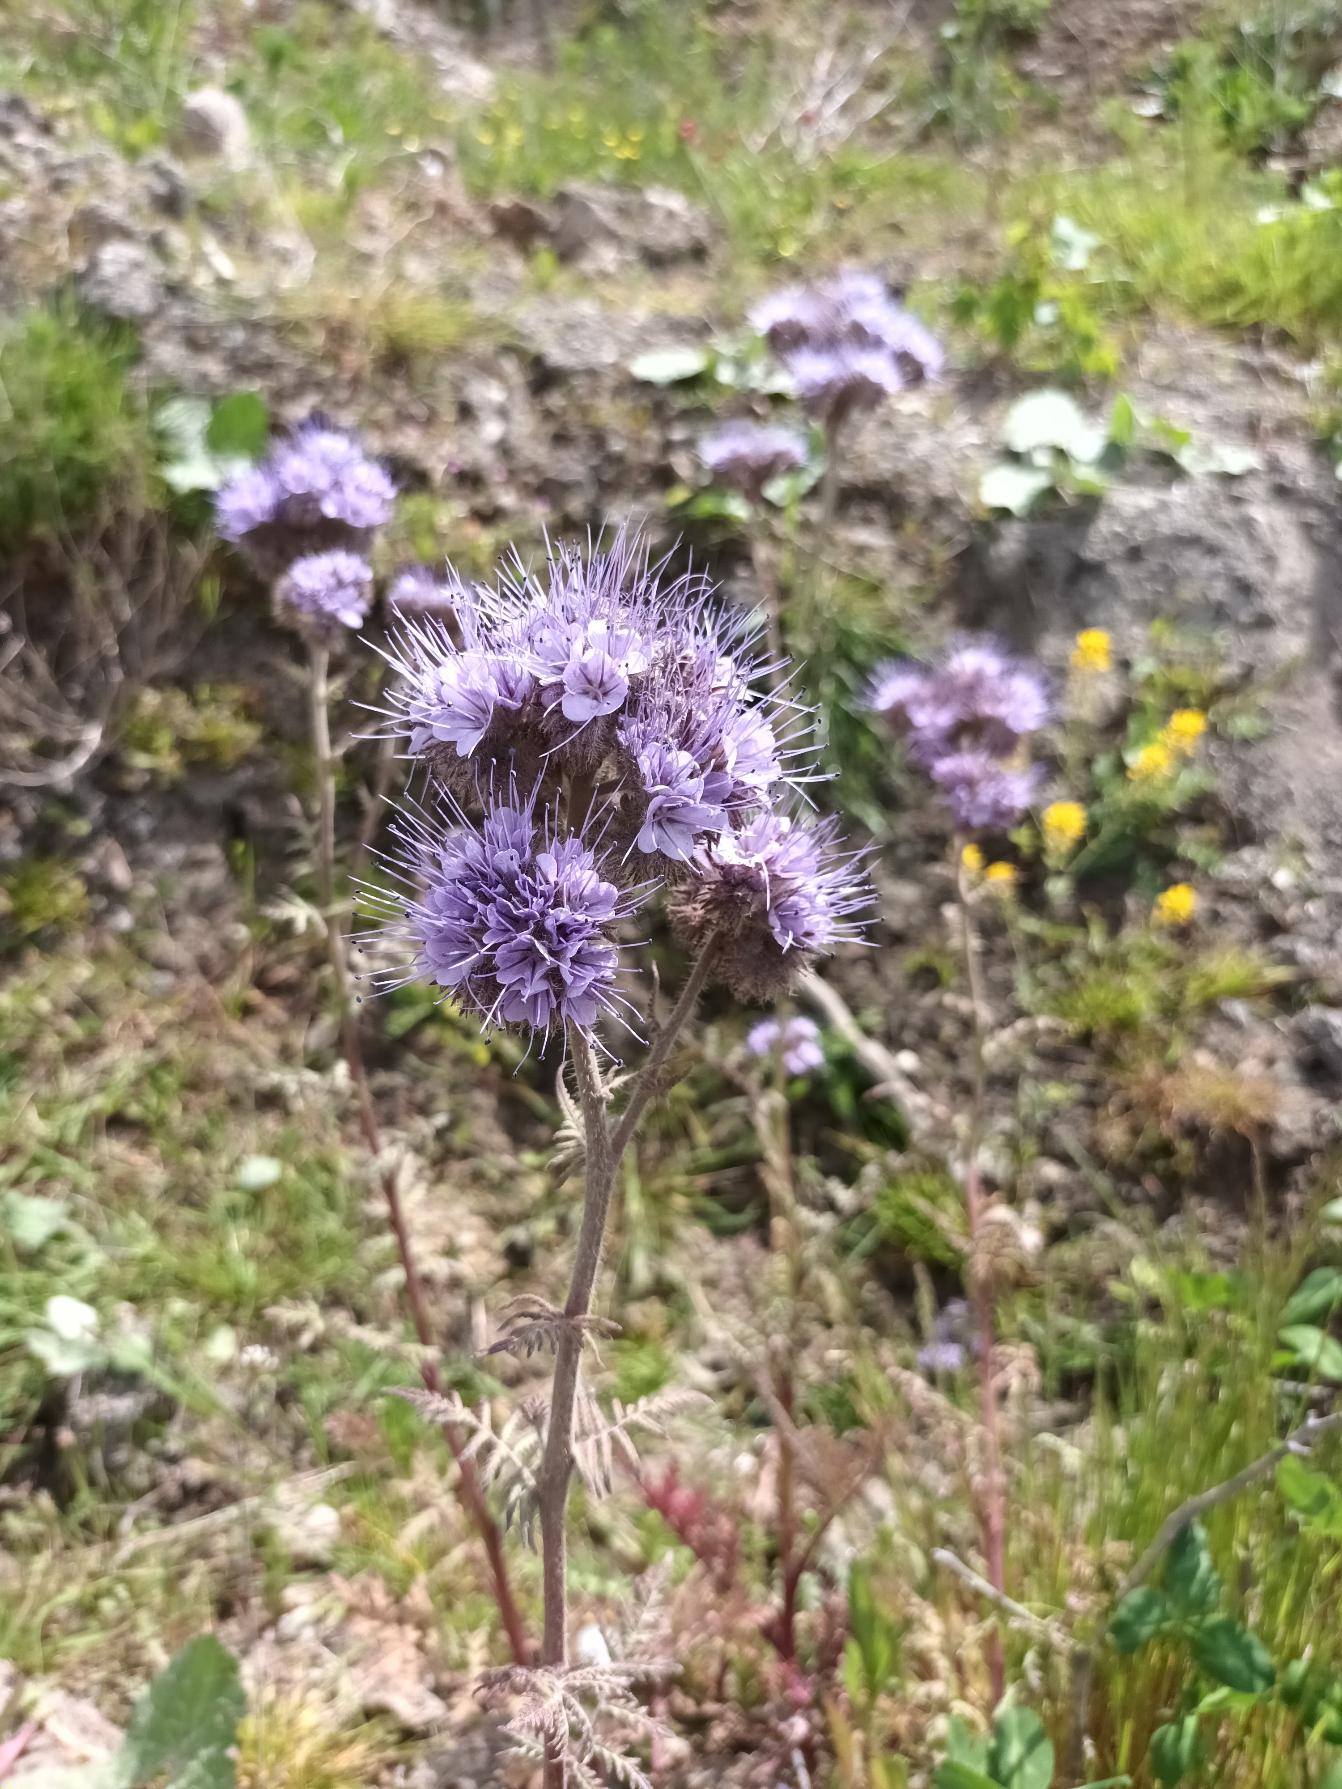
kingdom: Plantae
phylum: Tracheophyta
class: Magnoliopsida
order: Boraginales
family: Hydrophyllaceae
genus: Phacelia
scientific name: Phacelia tanacetifolia
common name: Honningurt
